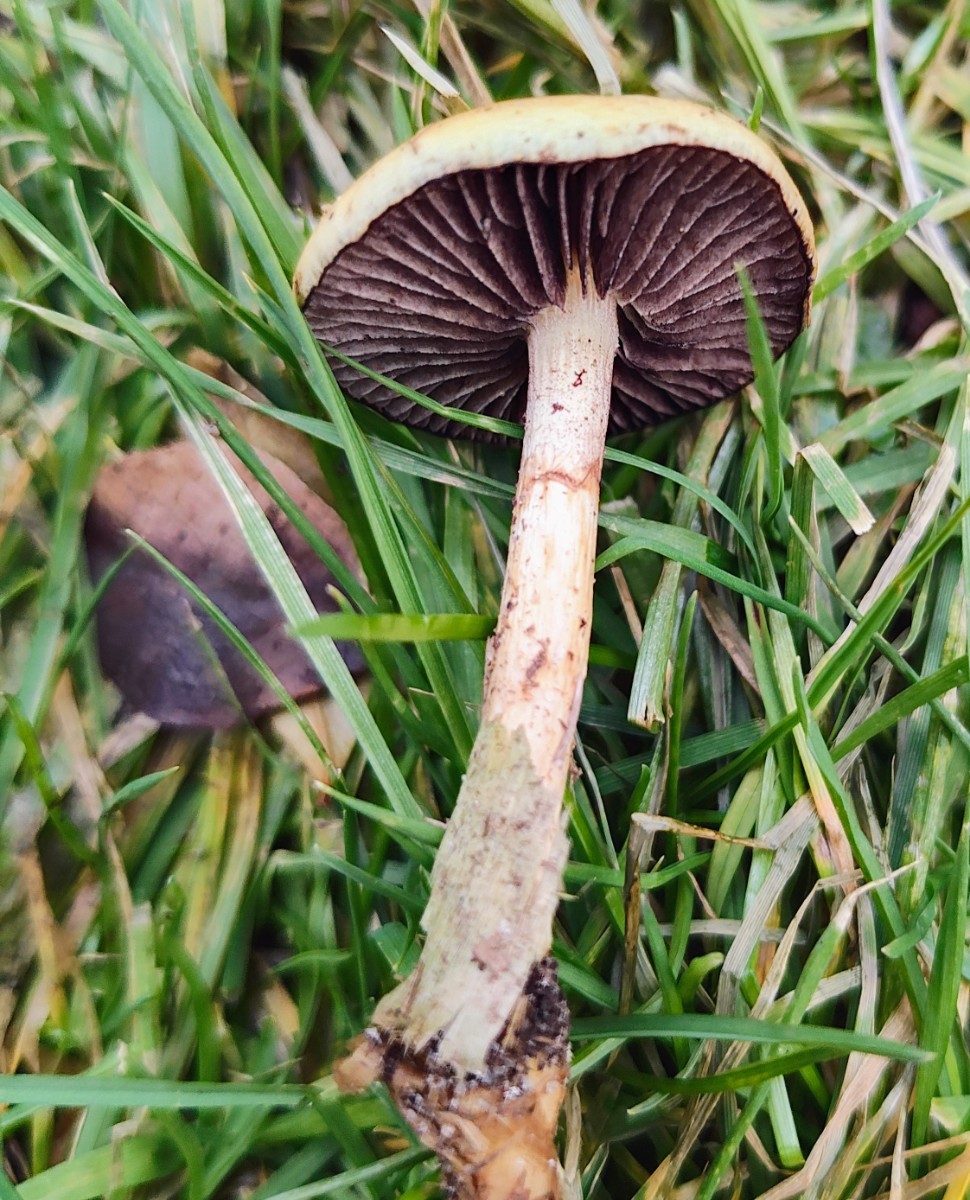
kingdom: Fungi
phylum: Basidiomycota
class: Agaricomycetes
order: Agaricales
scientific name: Agaricales
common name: champignonordenen
